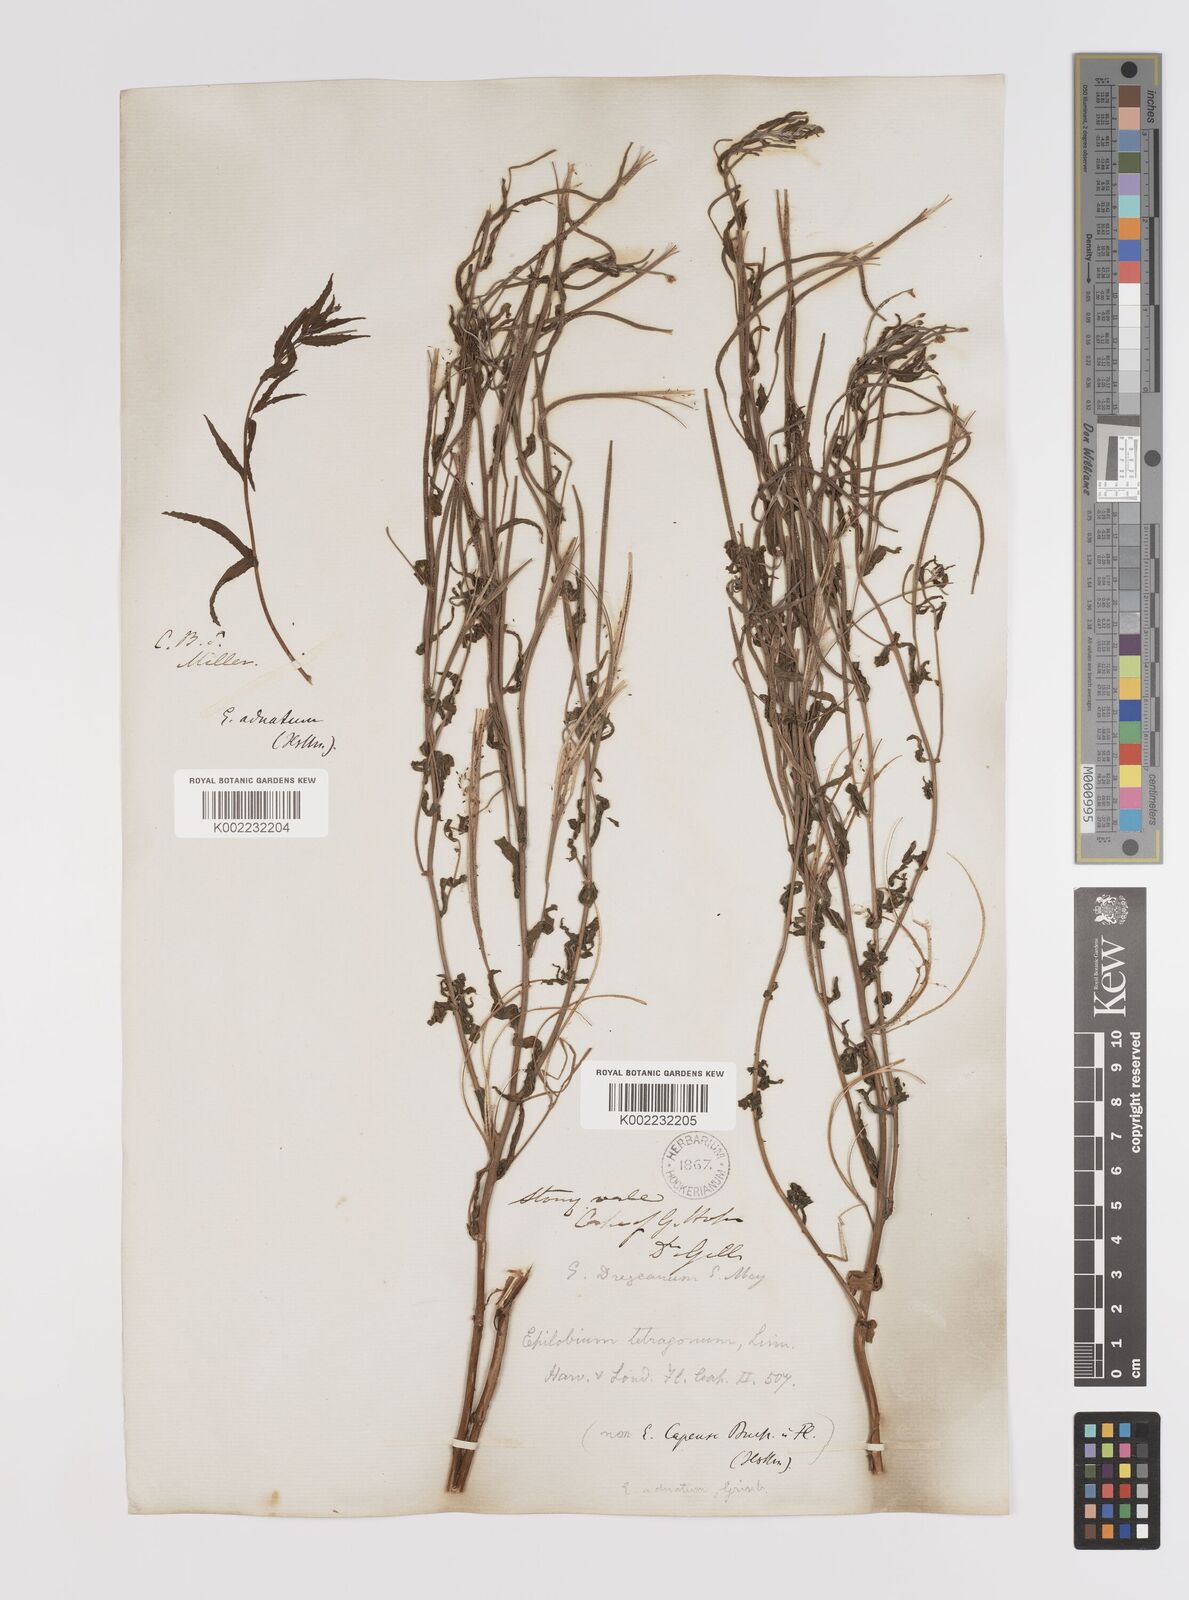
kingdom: Plantae
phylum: Tracheophyta
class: Magnoliopsida
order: Myrtales
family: Onagraceae
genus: Epilobium
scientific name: Epilobium tetragonum
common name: Square-stemmed willowherb
